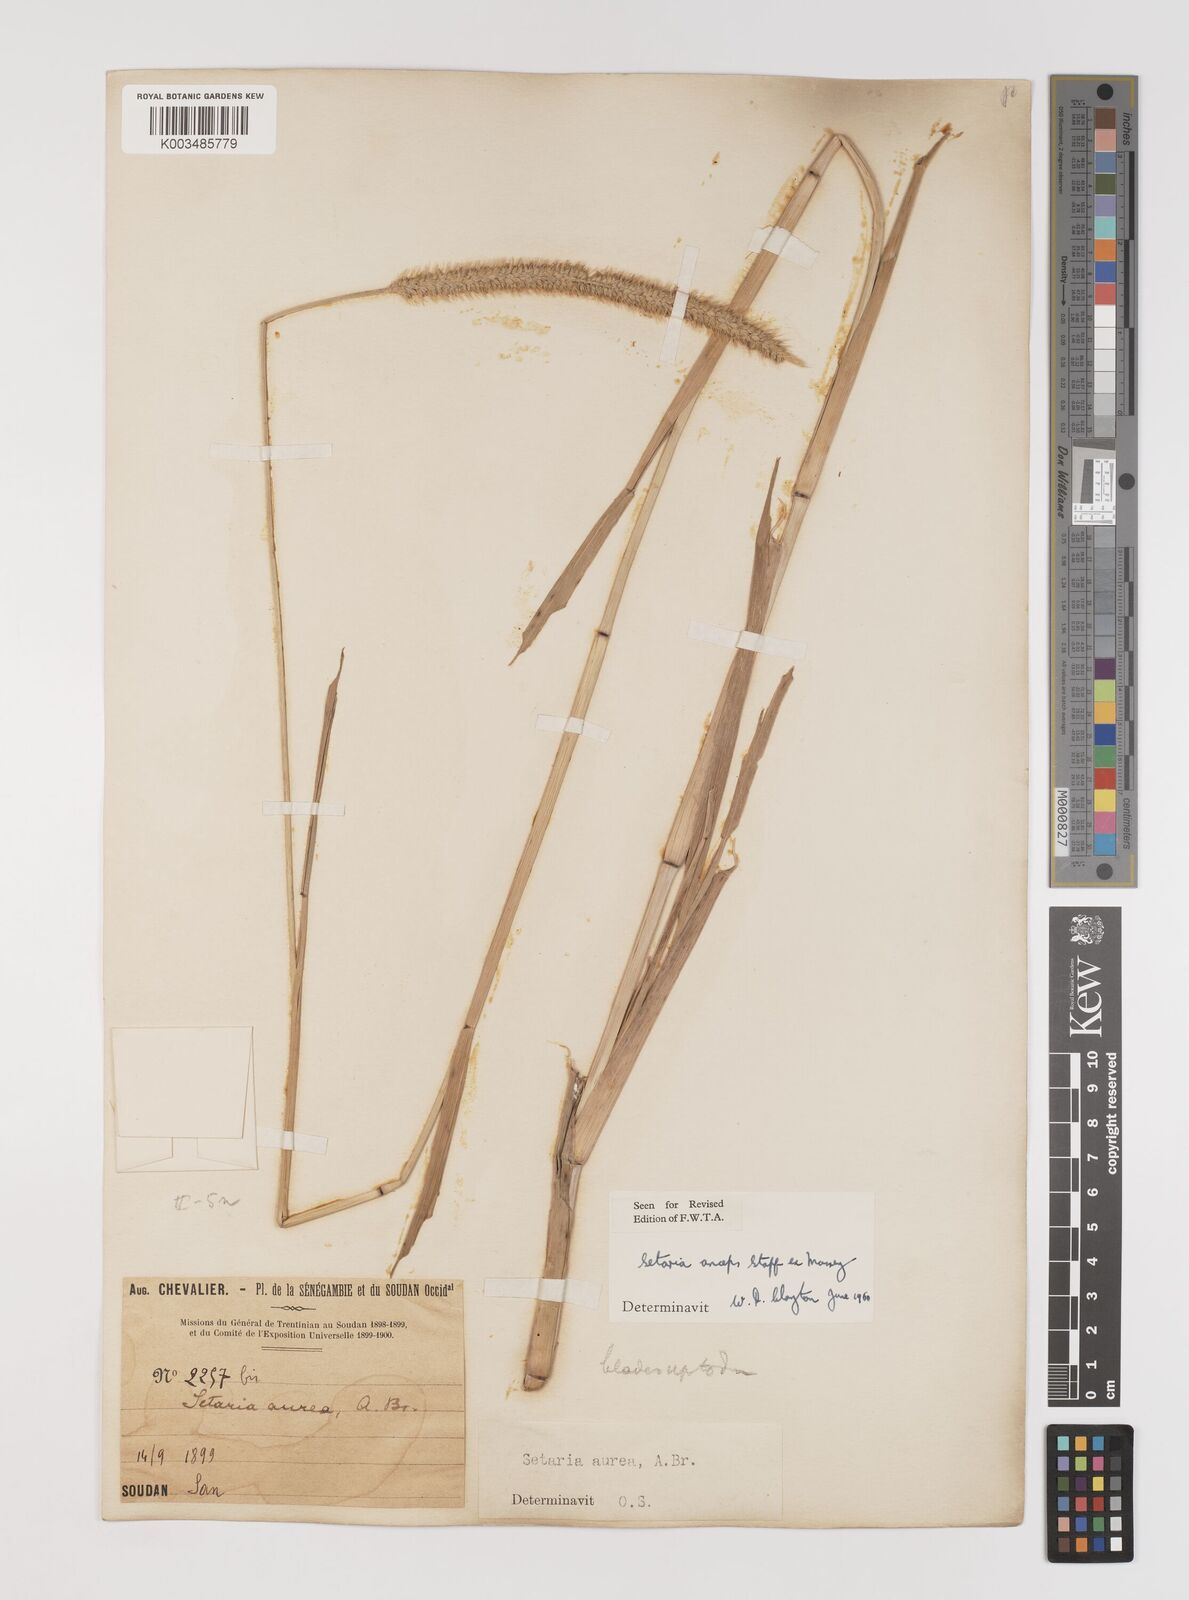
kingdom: Plantae
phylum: Tracheophyta
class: Liliopsida
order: Poales
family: Poaceae
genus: Setaria
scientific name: Setaria sphacelata
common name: African bristlegrass
